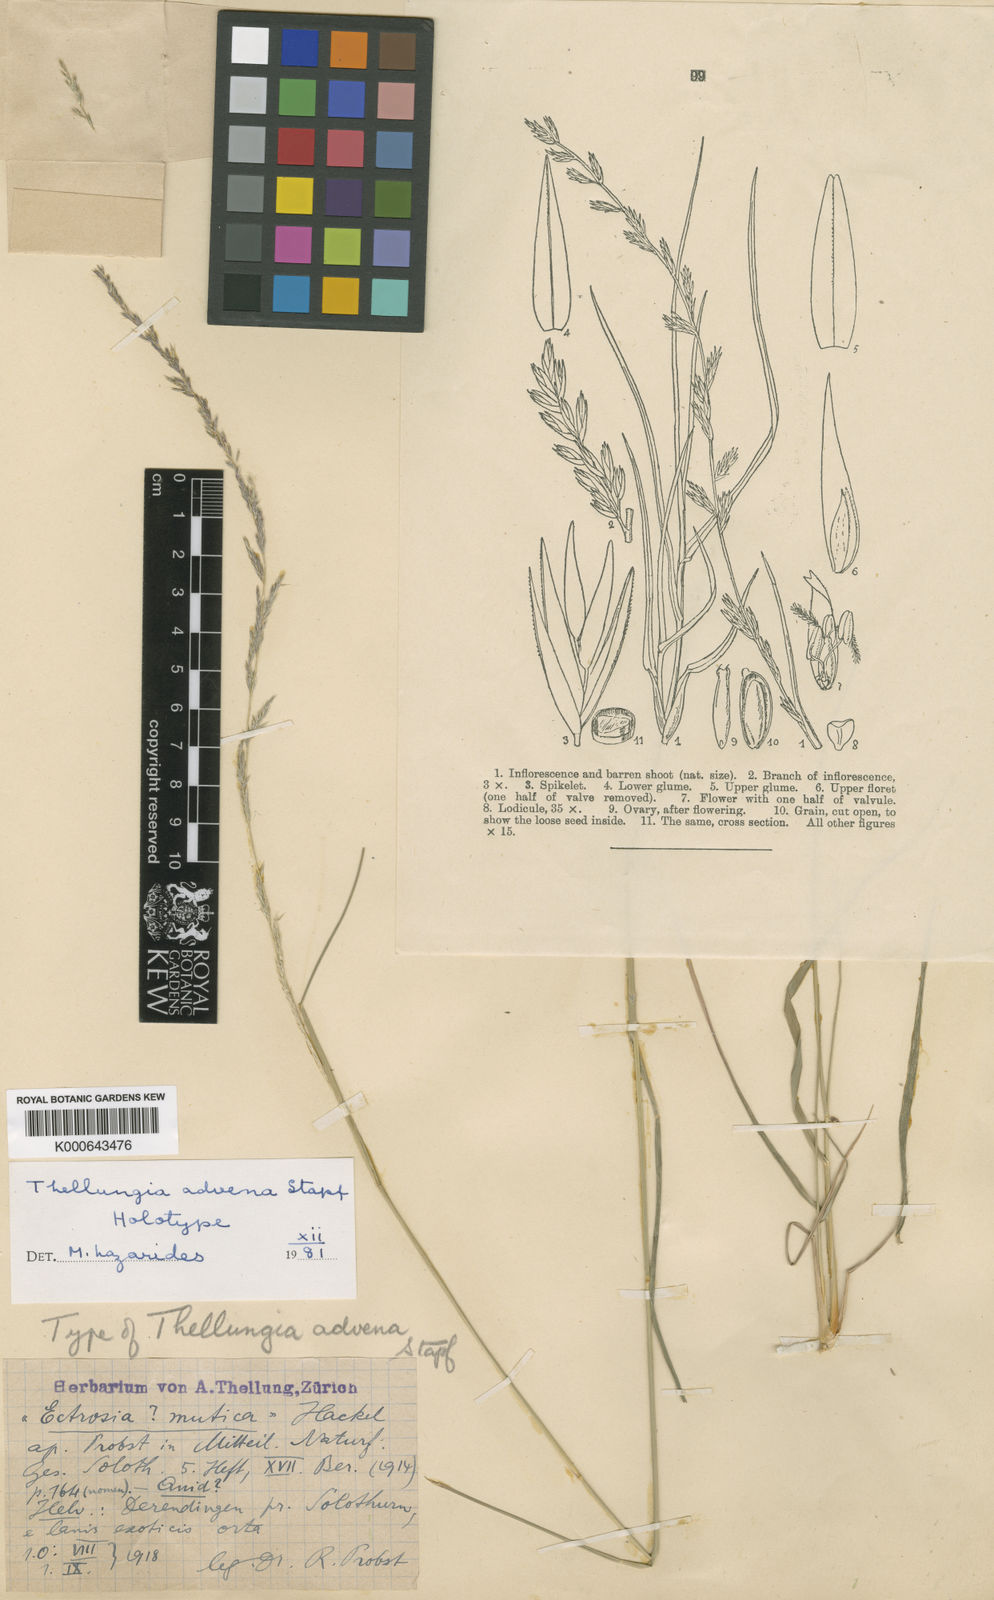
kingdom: Plantae
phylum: Tracheophyta
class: Liliopsida
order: Poales
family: Poaceae
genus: Sporobolus
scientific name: Sporobolus advenus
